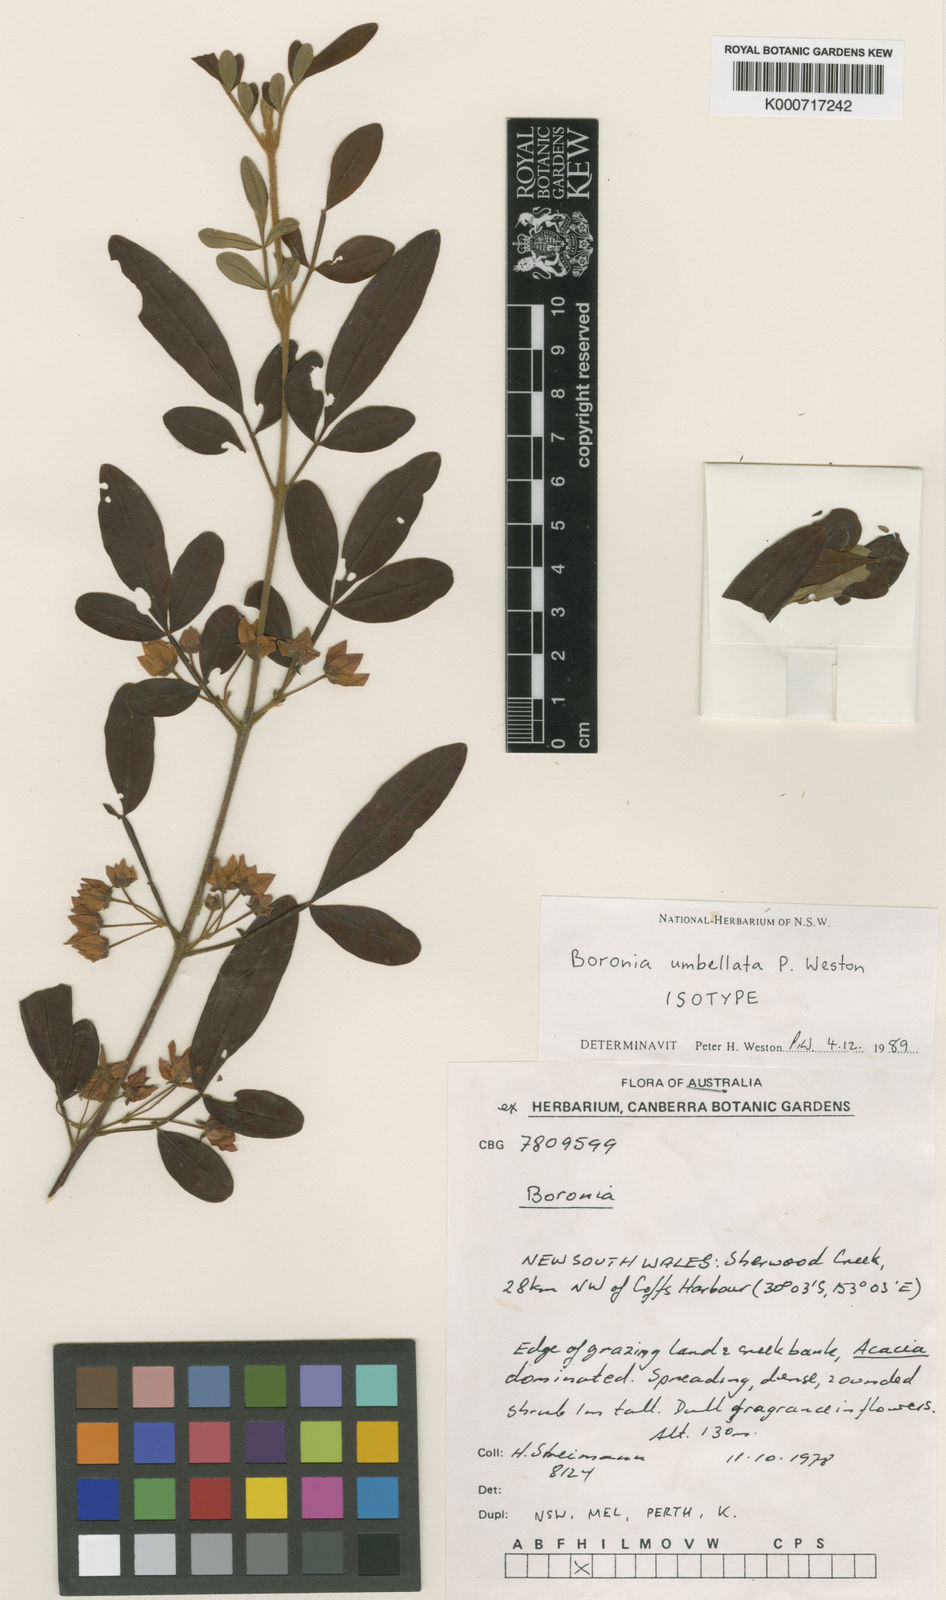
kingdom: Plantae
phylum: Tracheophyta
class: Magnoliopsida
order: Sapindales
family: Rutaceae
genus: Boronia
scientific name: Boronia umbellata
